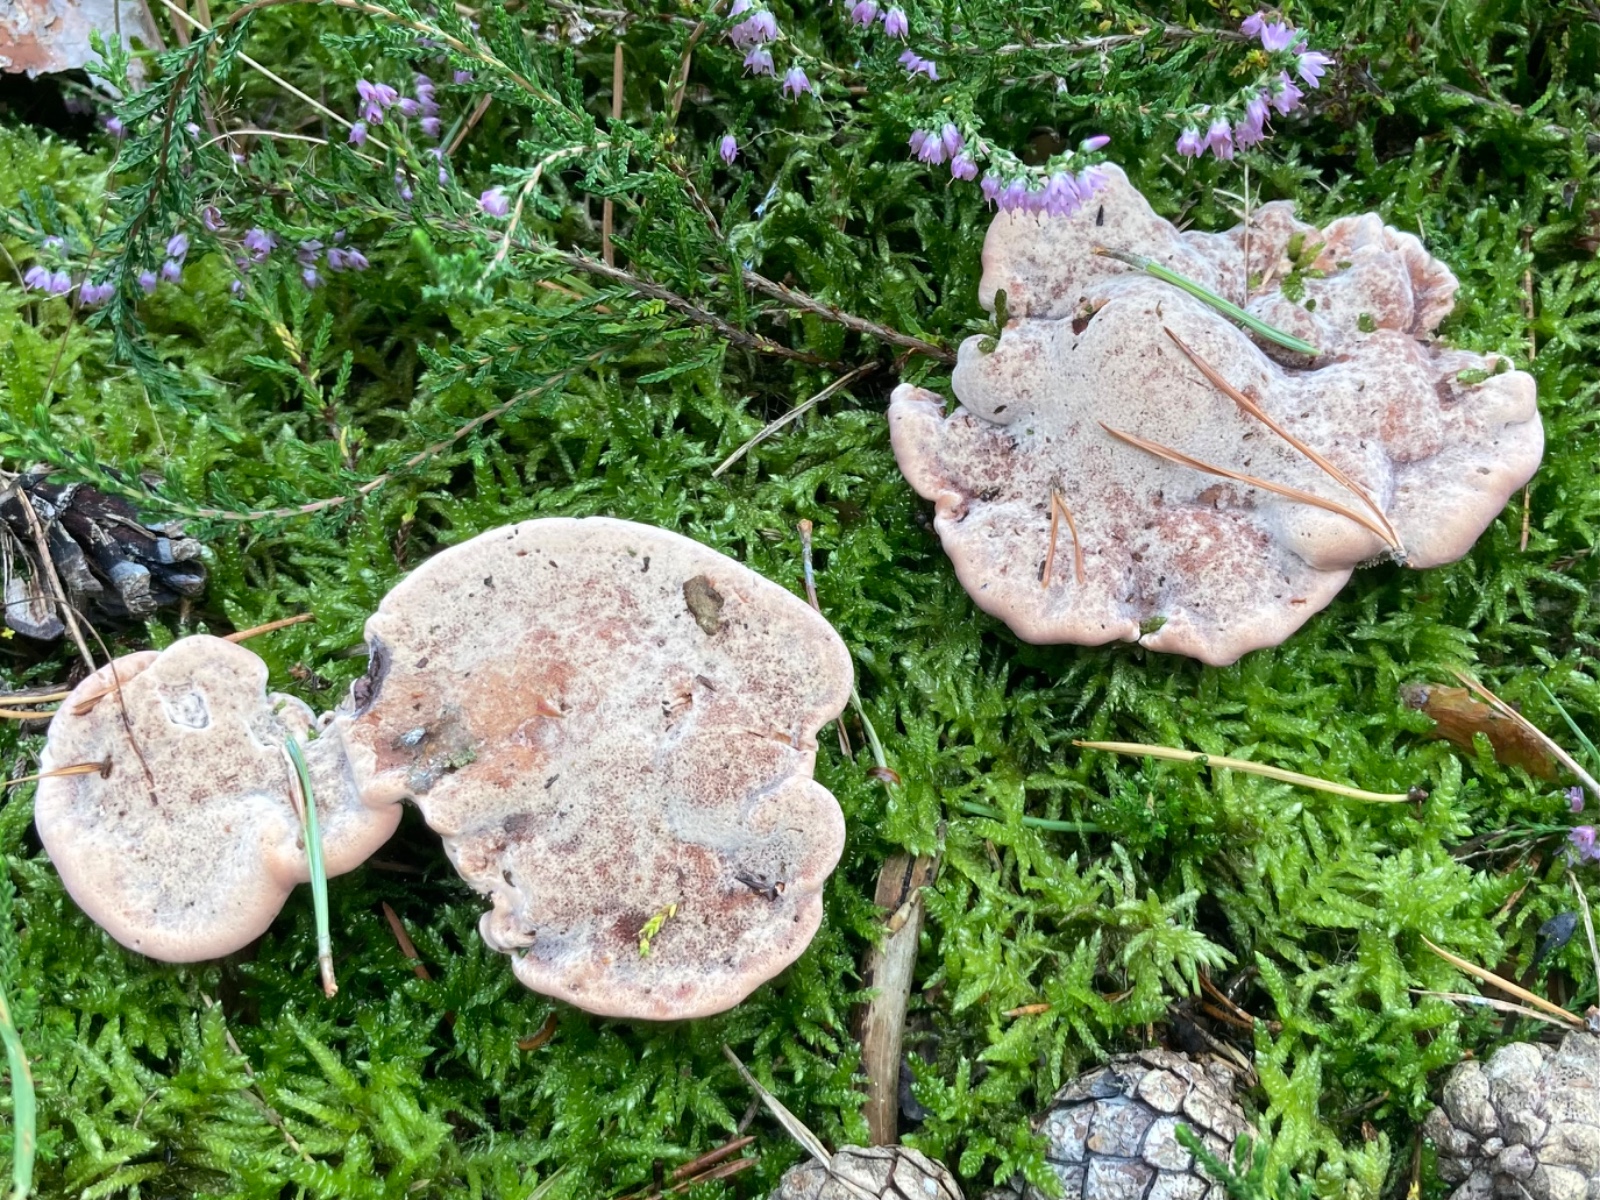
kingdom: Fungi
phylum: Basidiomycota
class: Agaricomycetes
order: Thelephorales
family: Bankeraceae
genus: Hydnellum
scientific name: Hydnellum ferrugineum
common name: rust-korkpigsvamp
